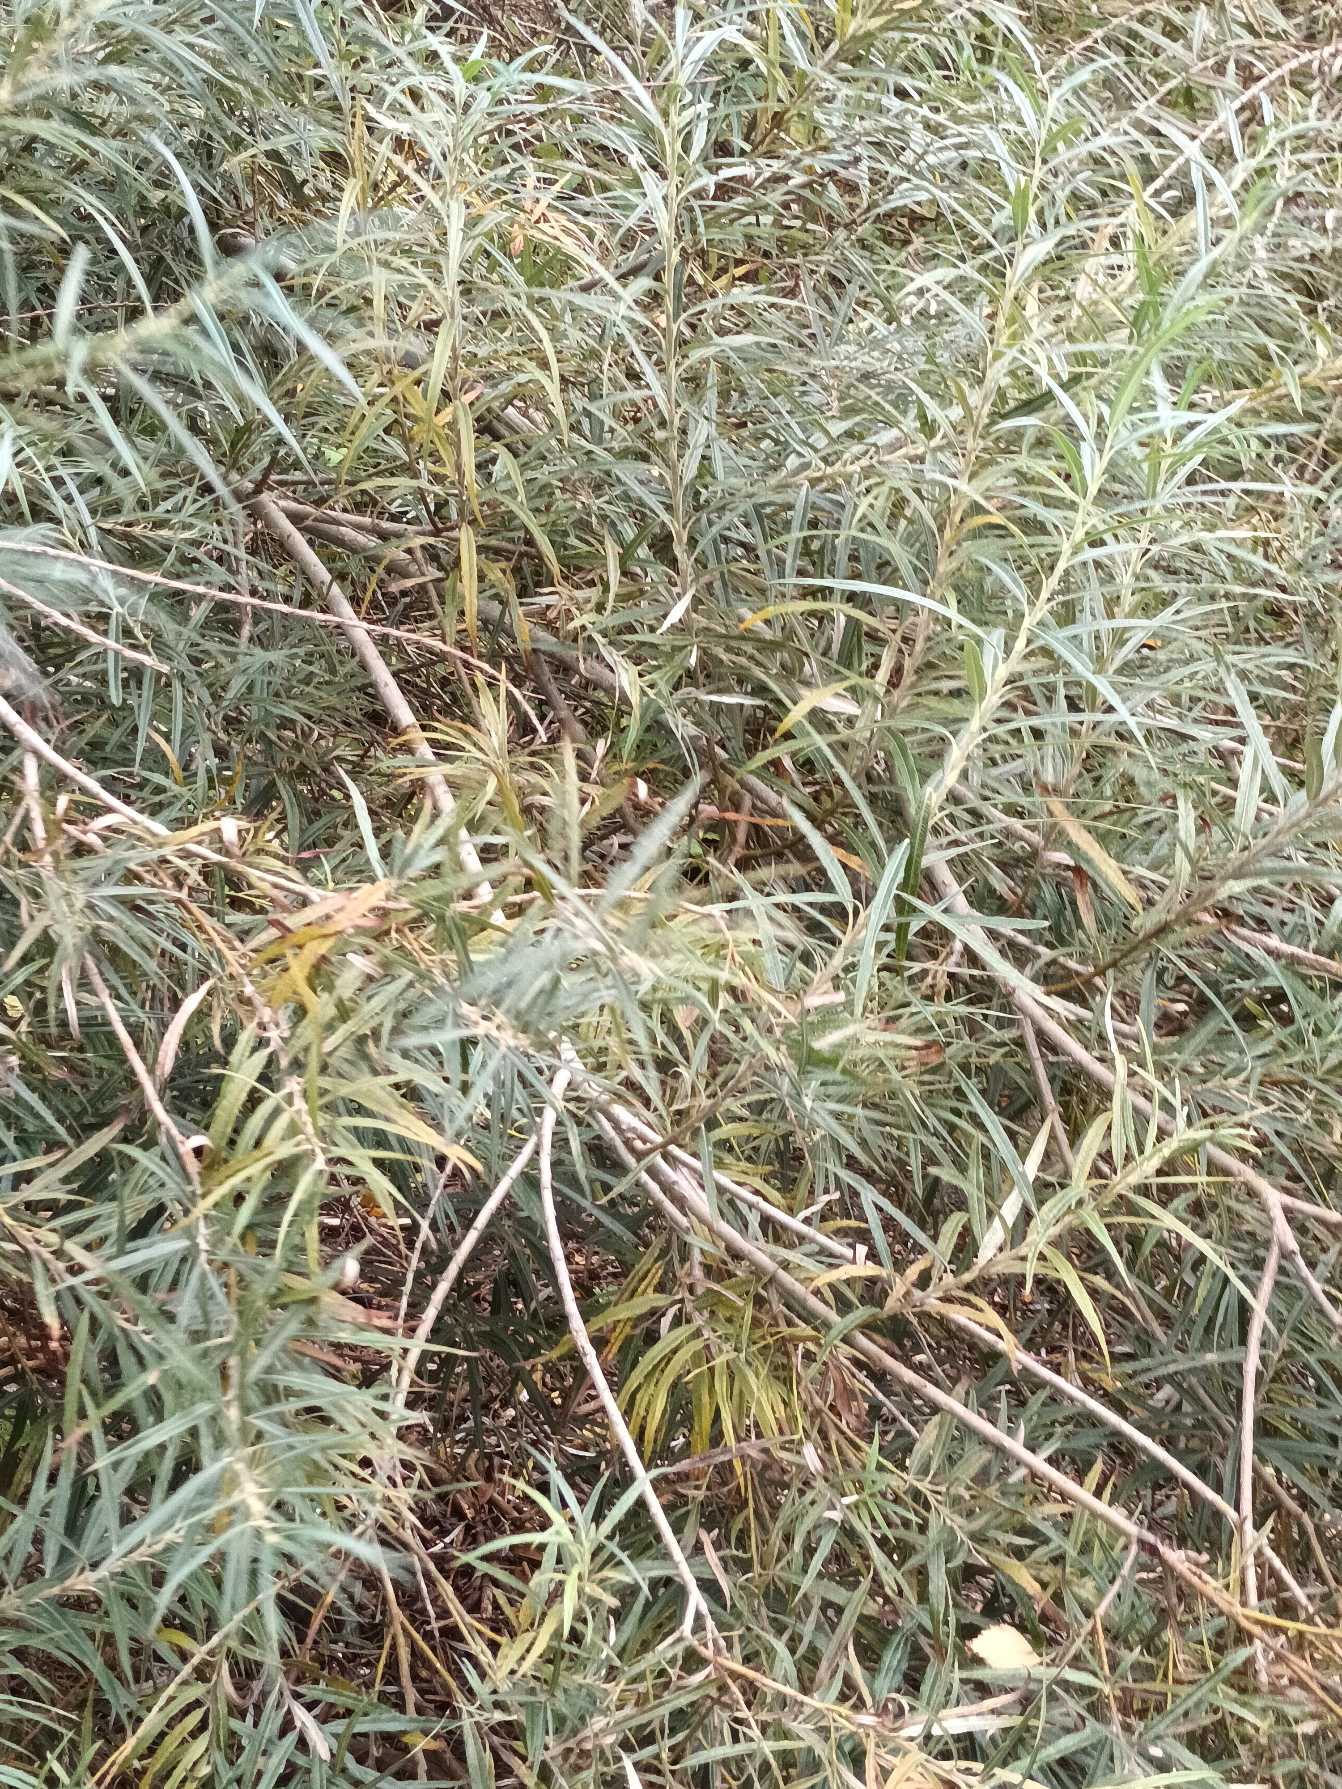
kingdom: Plantae
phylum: Tracheophyta
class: Magnoliopsida
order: Malpighiales
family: Salicaceae
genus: Salix
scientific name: Salix viminalis
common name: Bånd-pil
